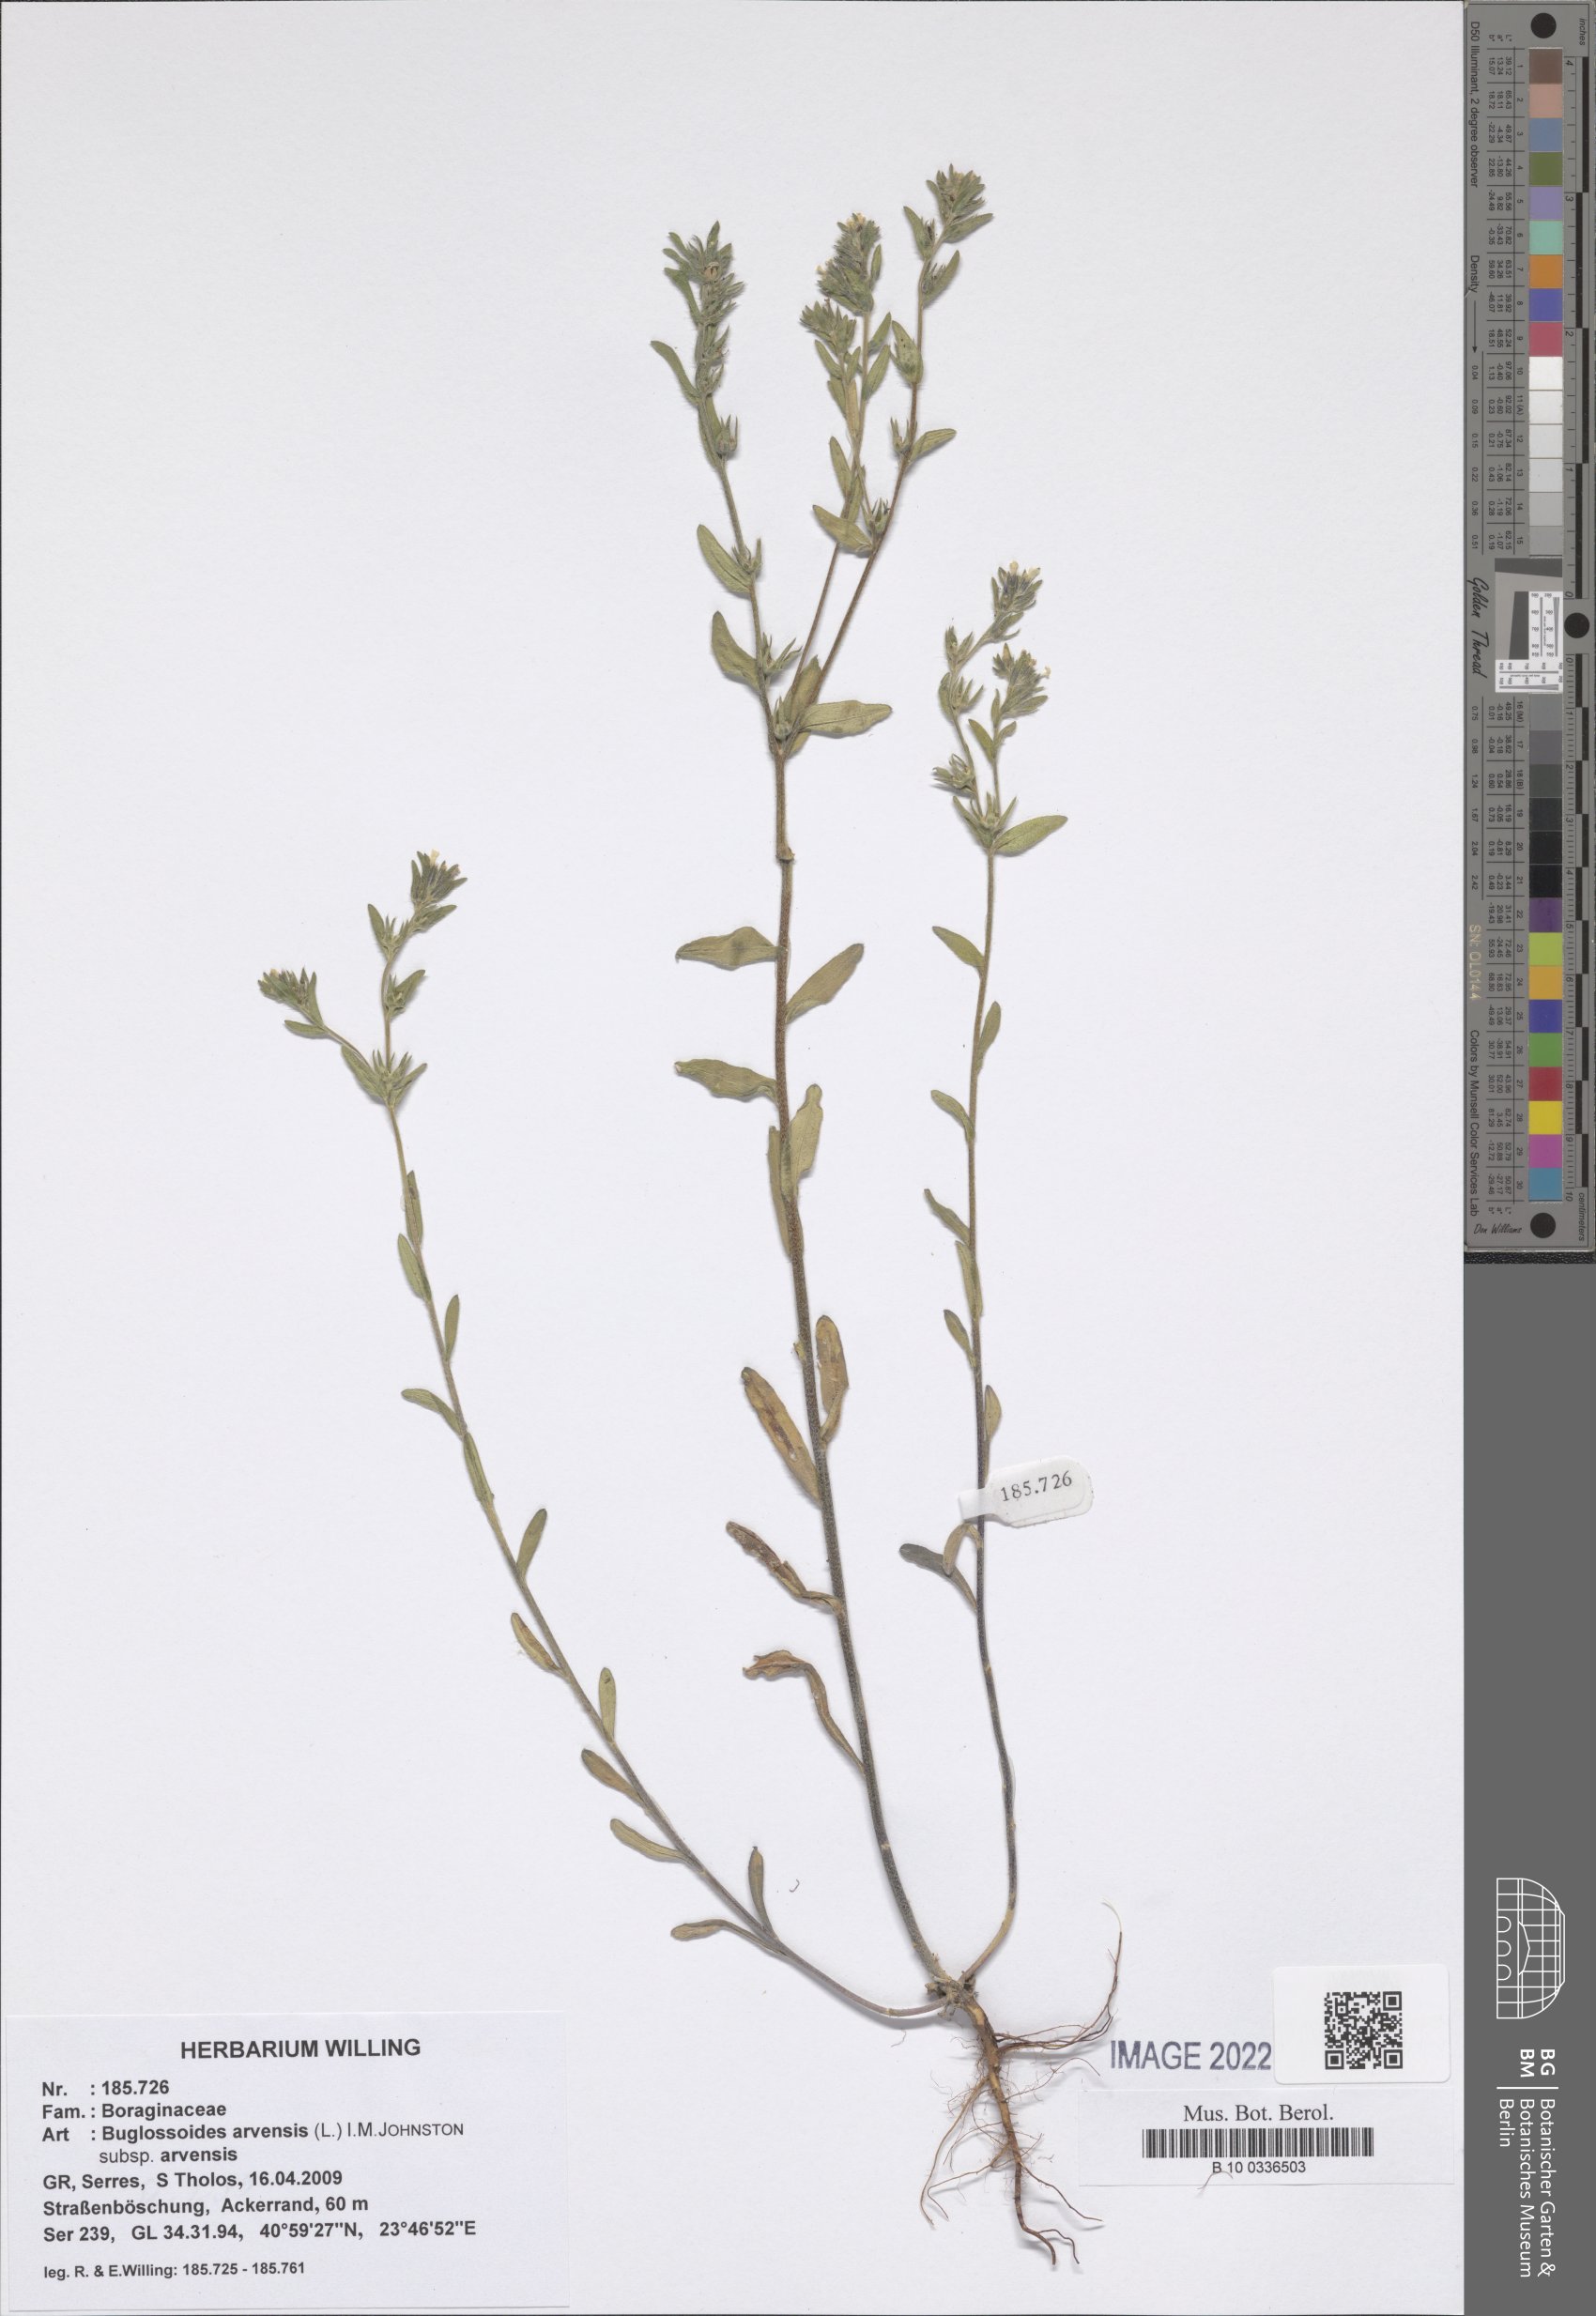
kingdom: Plantae
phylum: Tracheophyta
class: Magnoliopsida
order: Boraginales
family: Boraginaceae
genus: Buglossoides
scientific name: Buglossoides arvensis
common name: Corn gromwell
